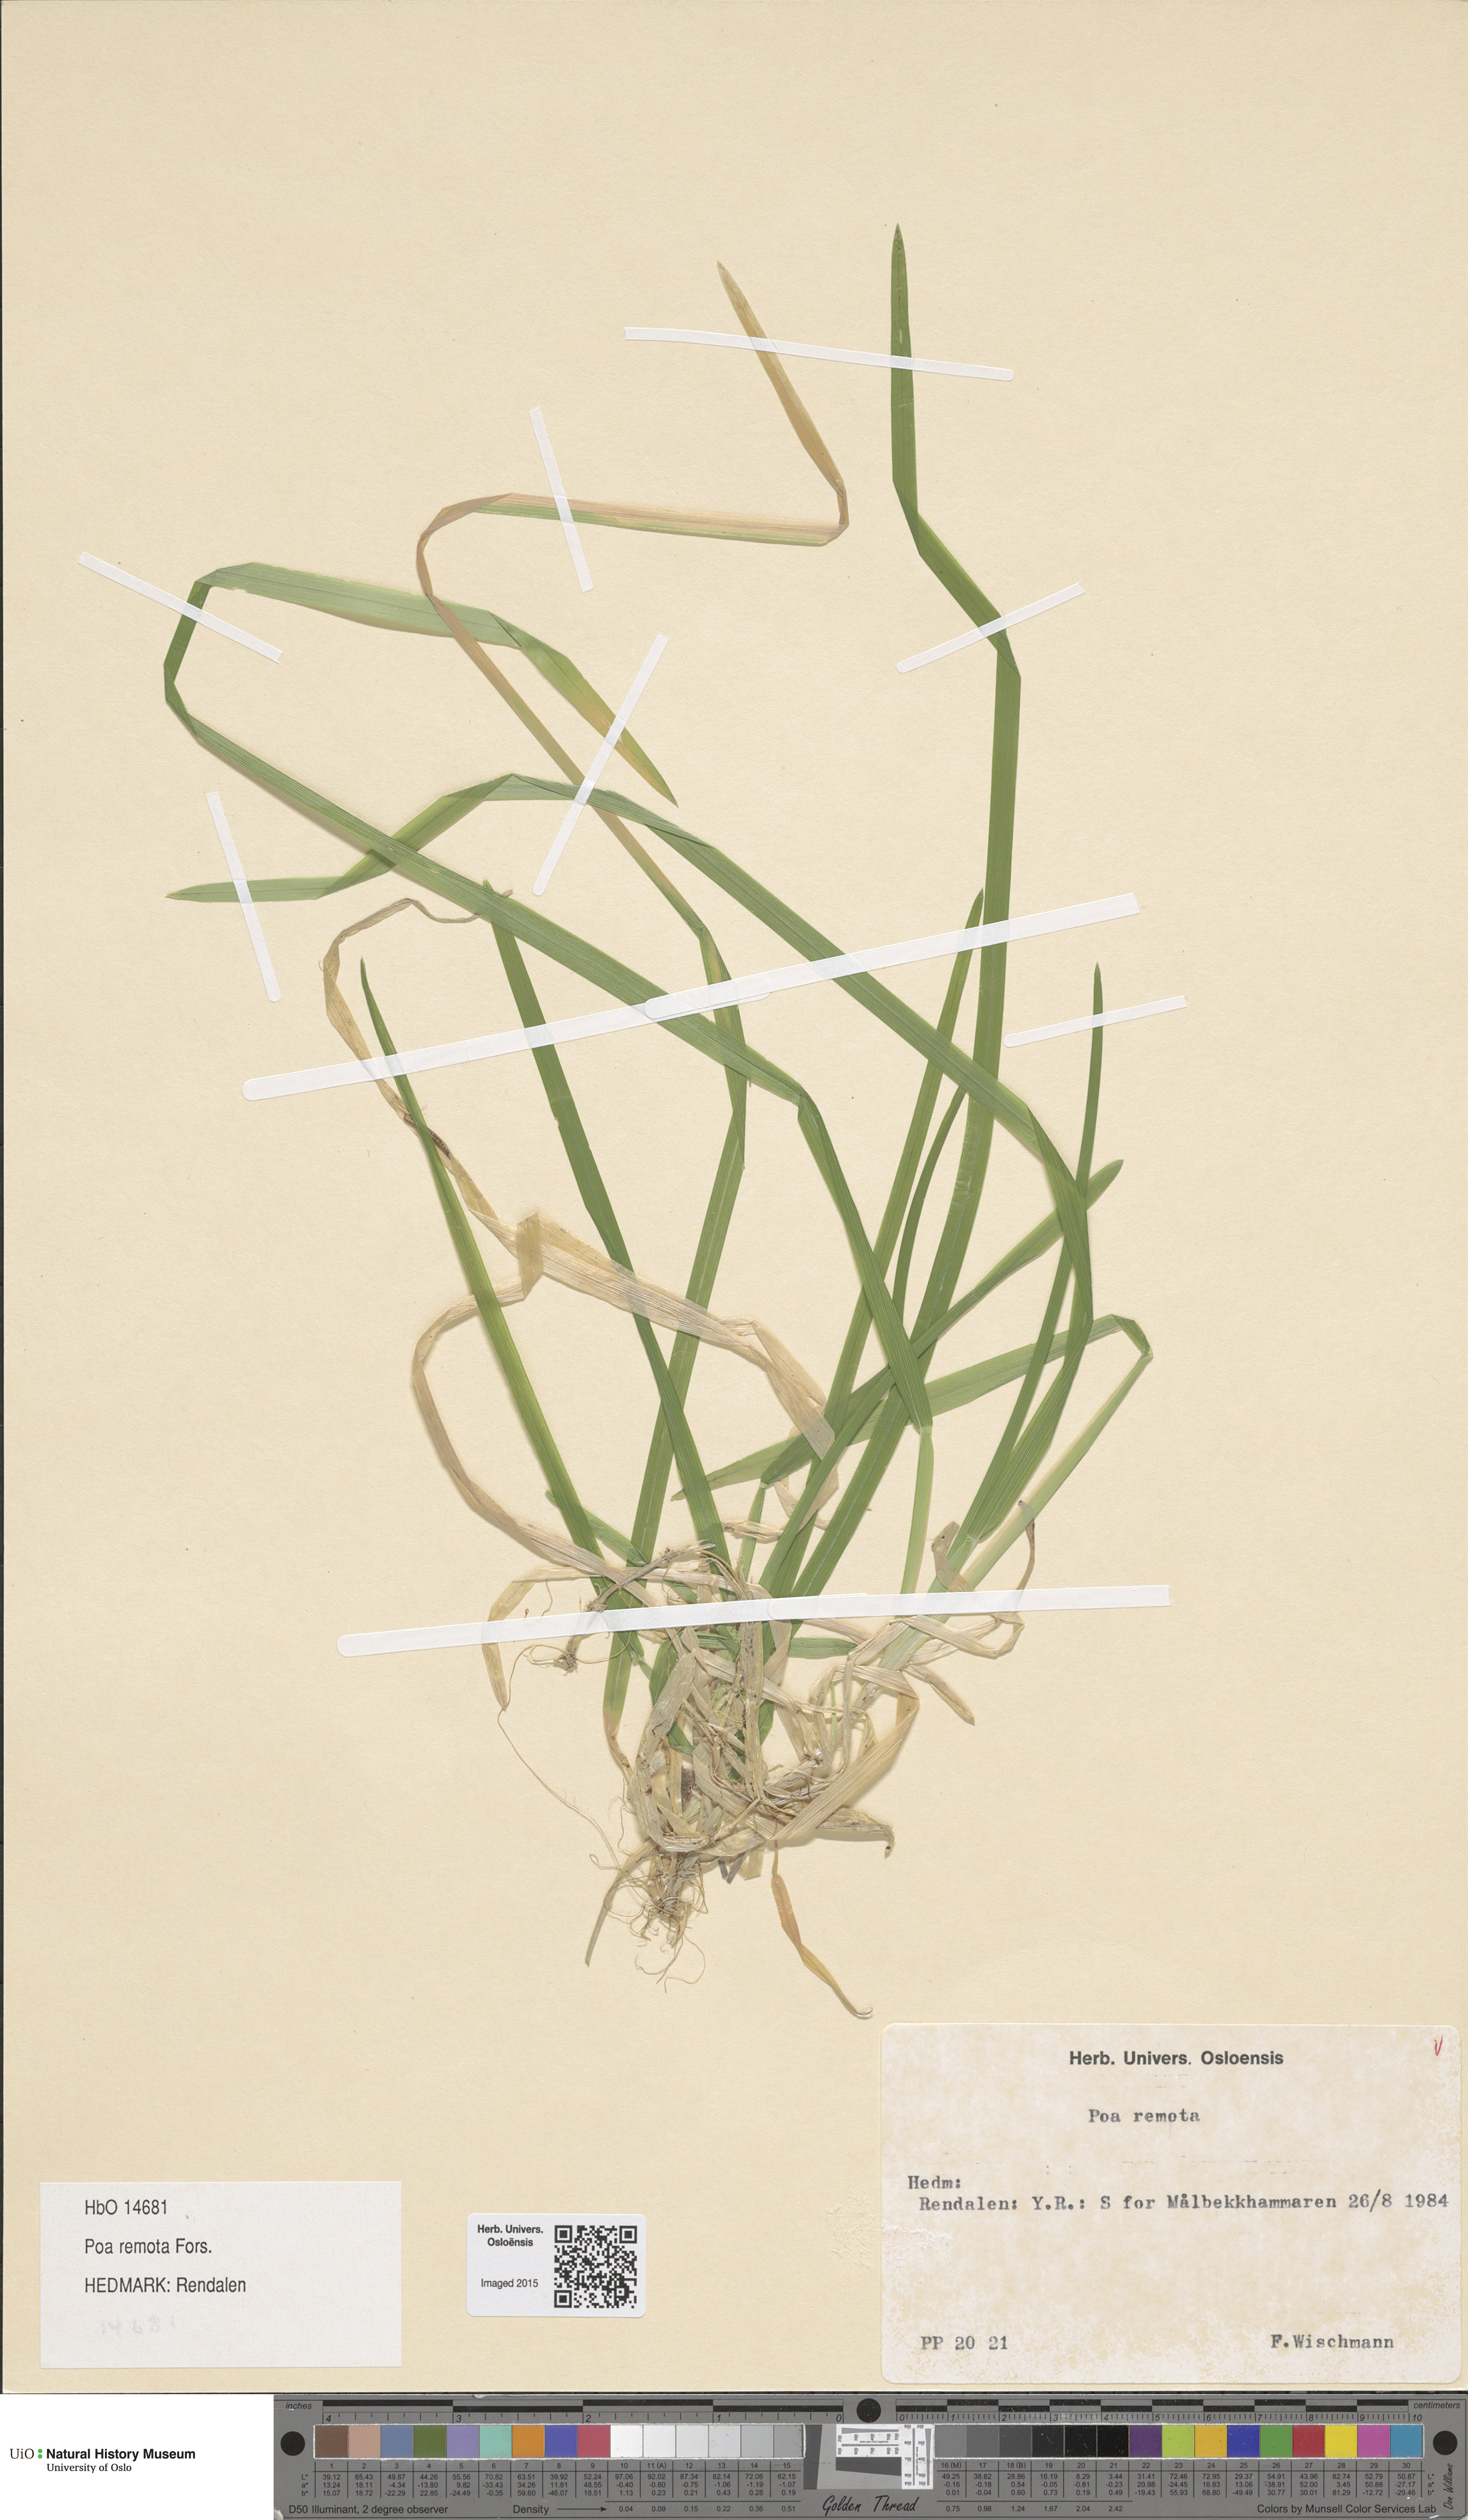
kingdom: Plantae
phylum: Tracheophyta
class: Liliopsida
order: Poales
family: Poaceae
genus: Poa
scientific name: Poa remota
